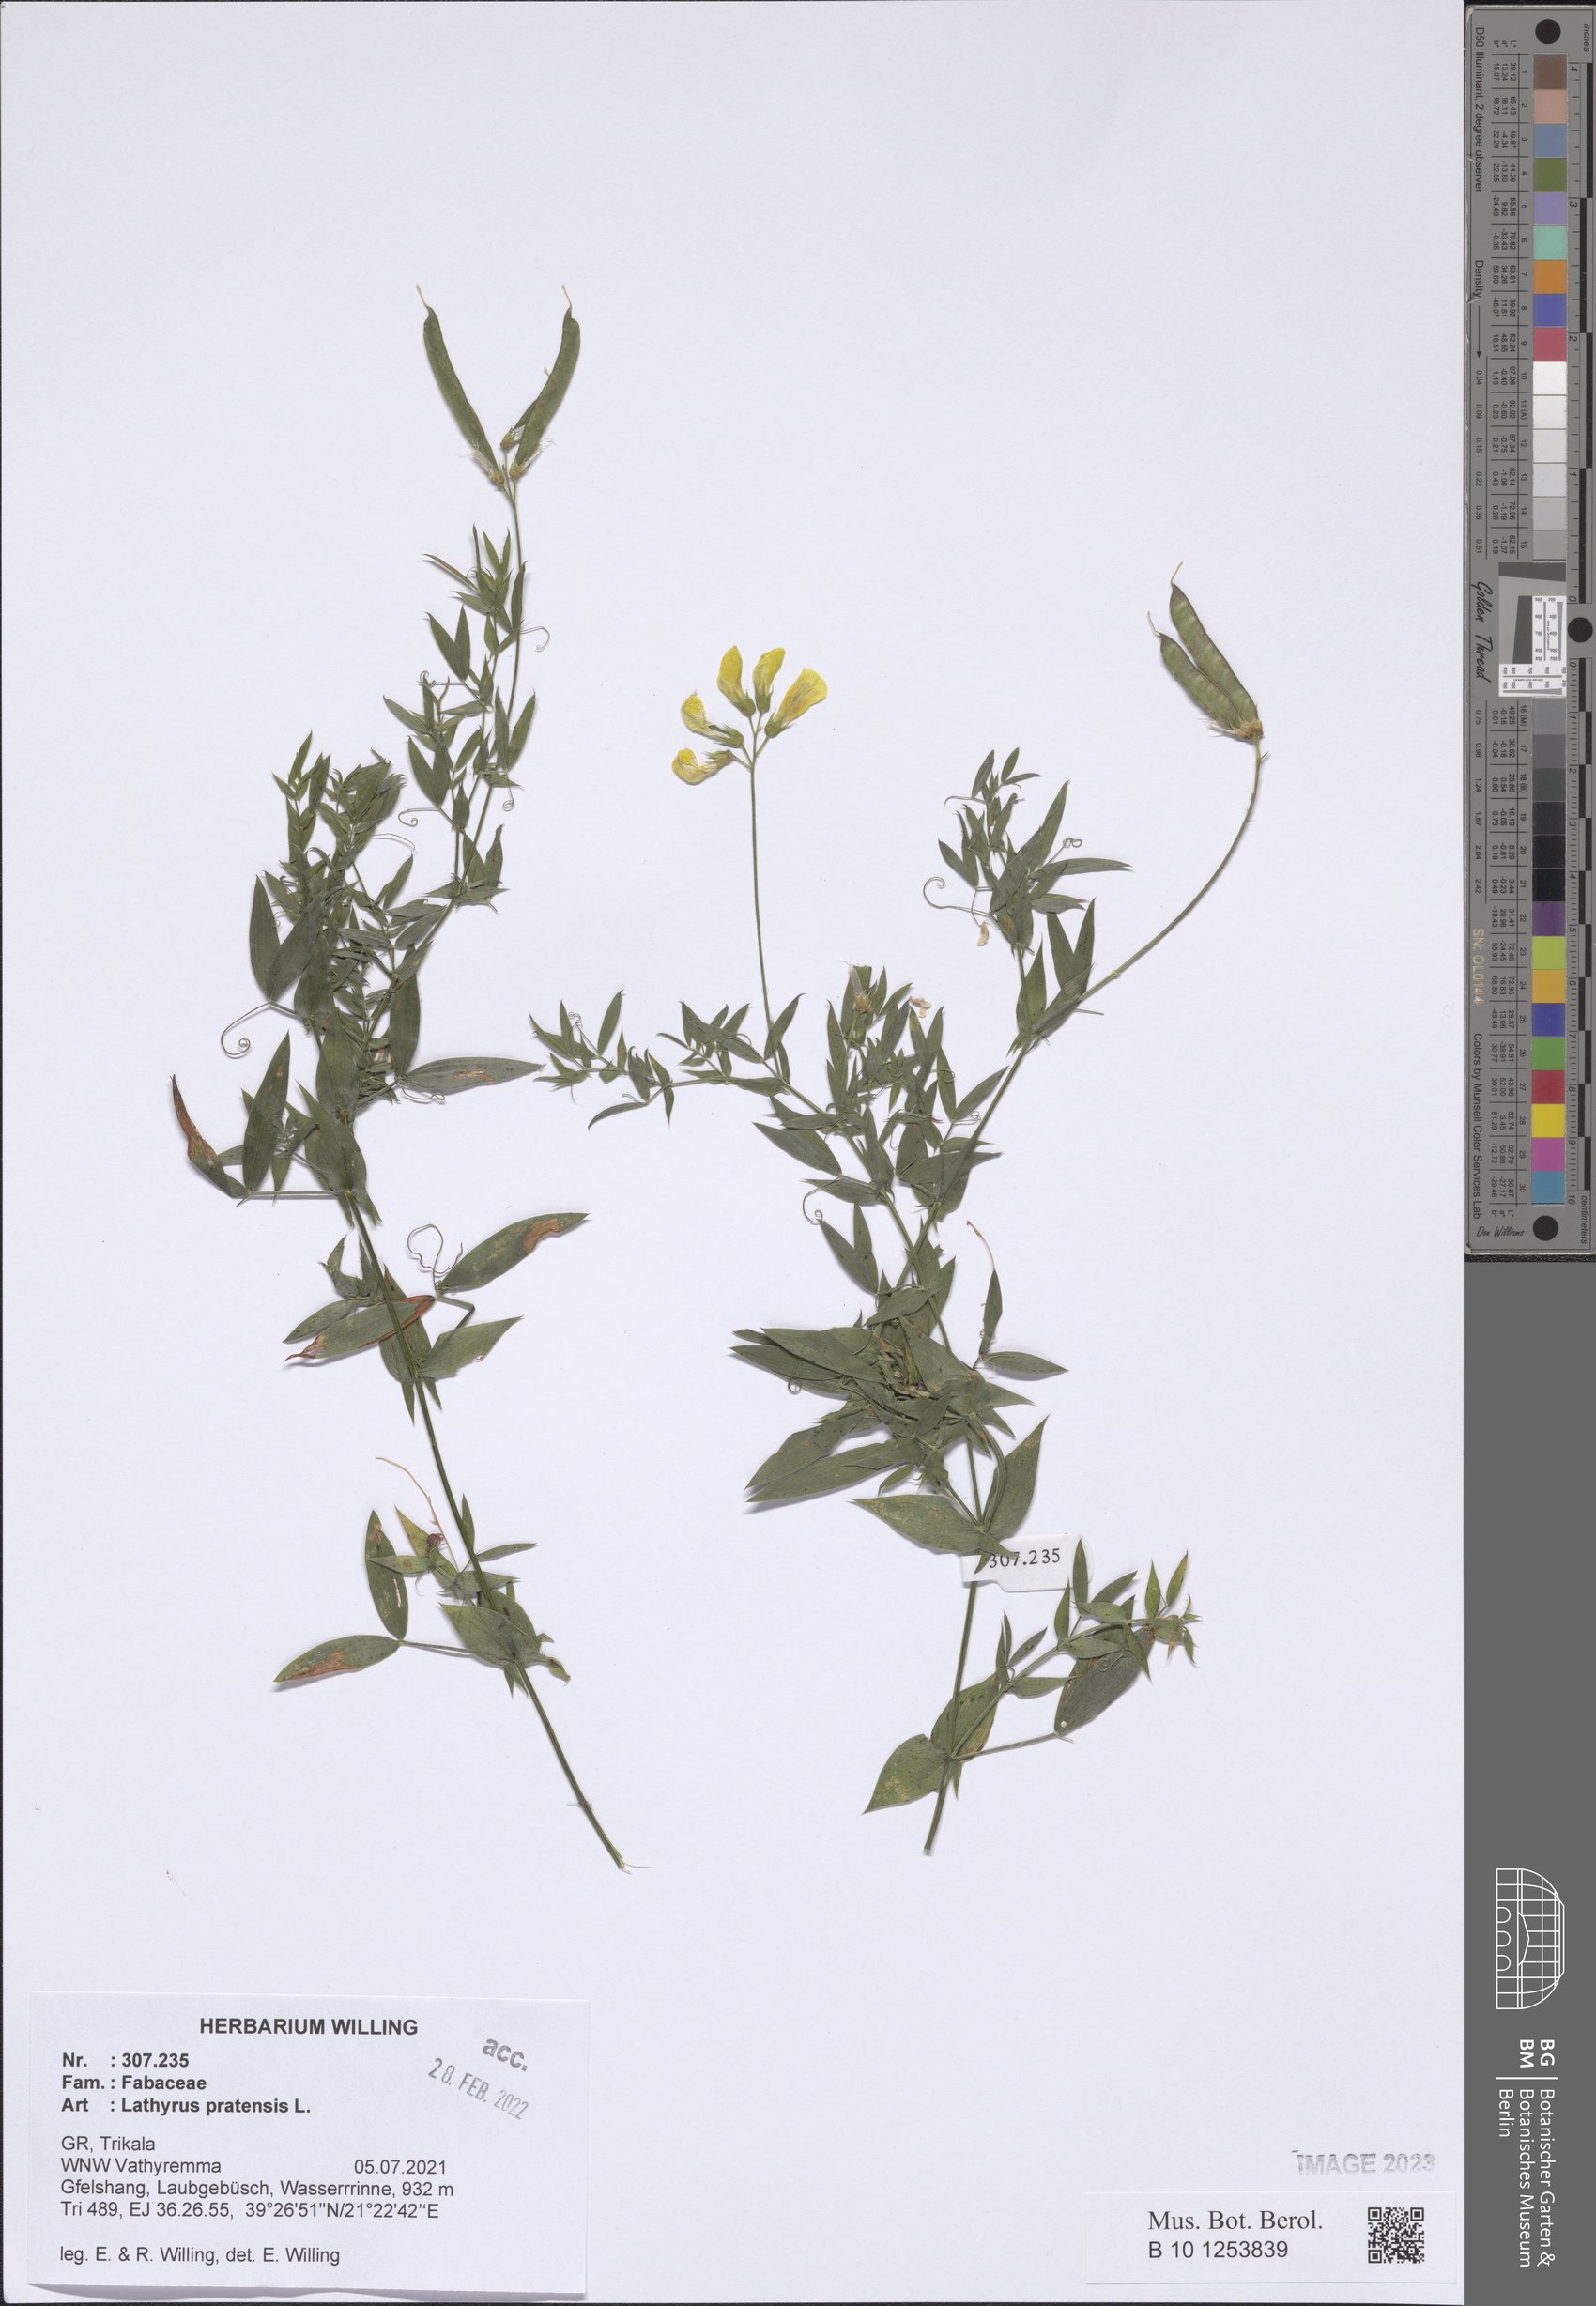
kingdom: Plantae
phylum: Tracheophyta
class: Magnoliopsida
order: Fabales
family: Fabaceae
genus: Lathyrus
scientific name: Lathyrus pratensis
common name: Meadow vetchling
